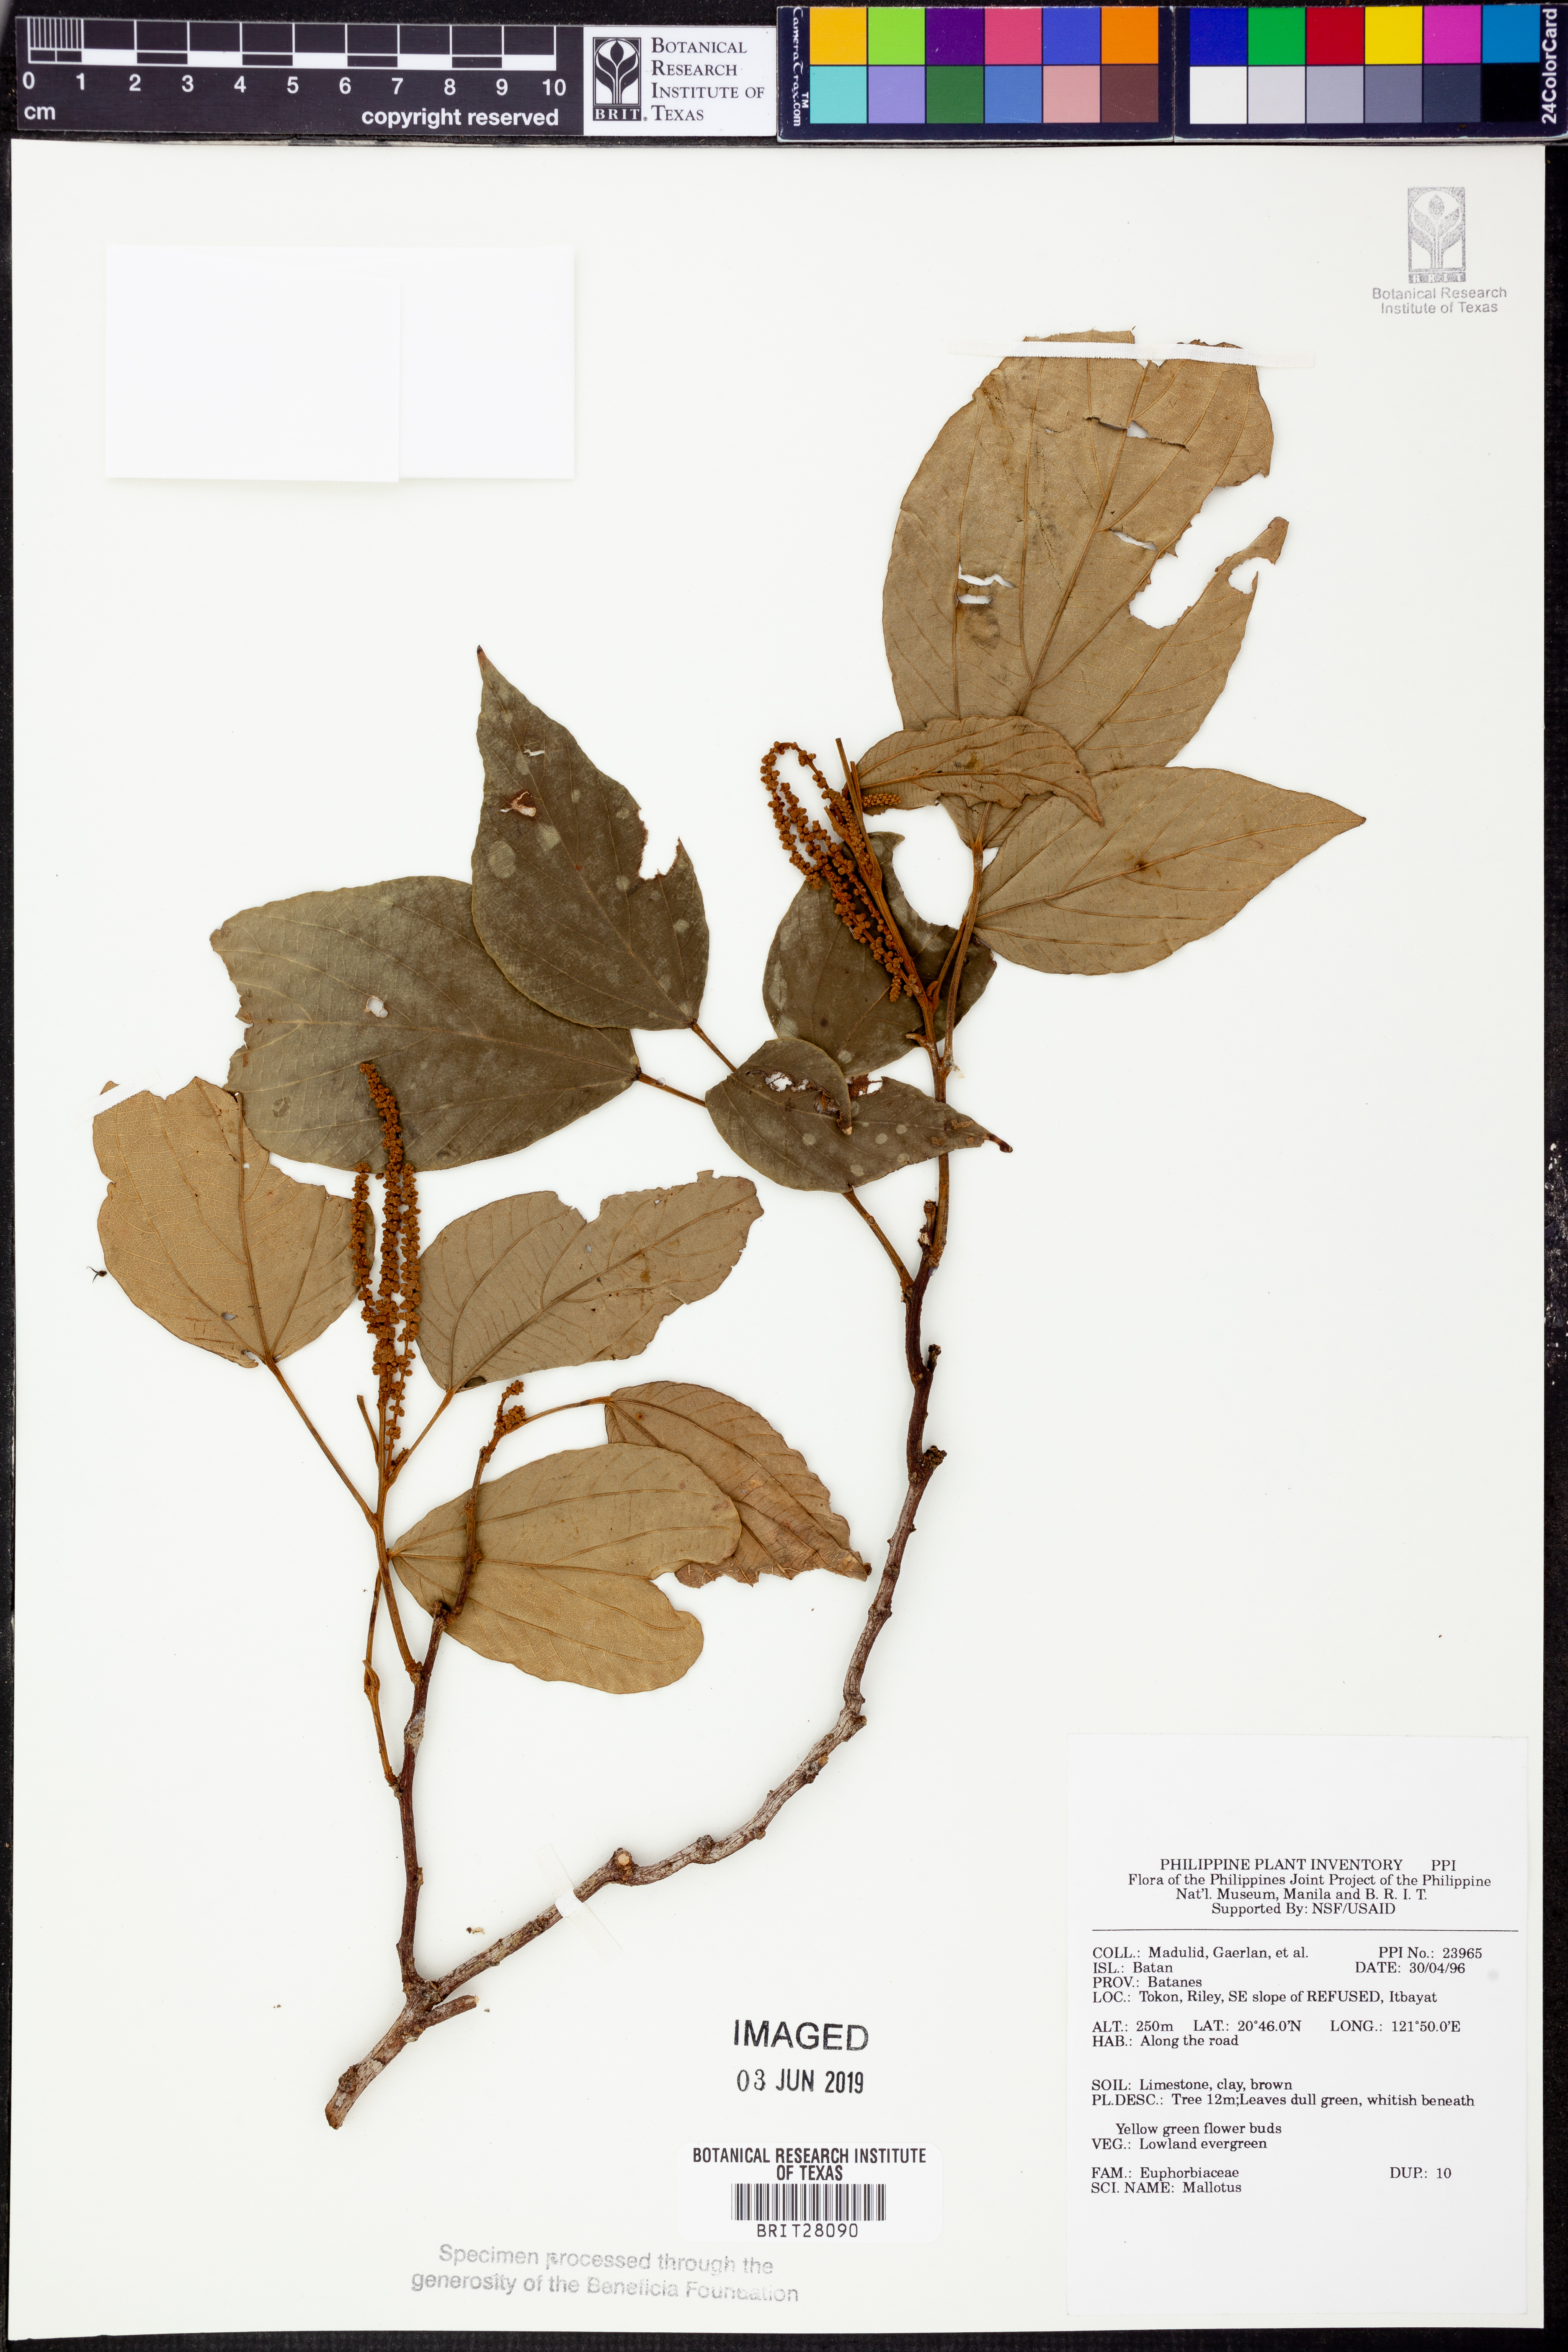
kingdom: Plantae
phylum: Tracheophyta
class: Magnoliopsida
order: Malpighiales
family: Euphorbiaceae
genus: Mallotus
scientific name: Mallotus
